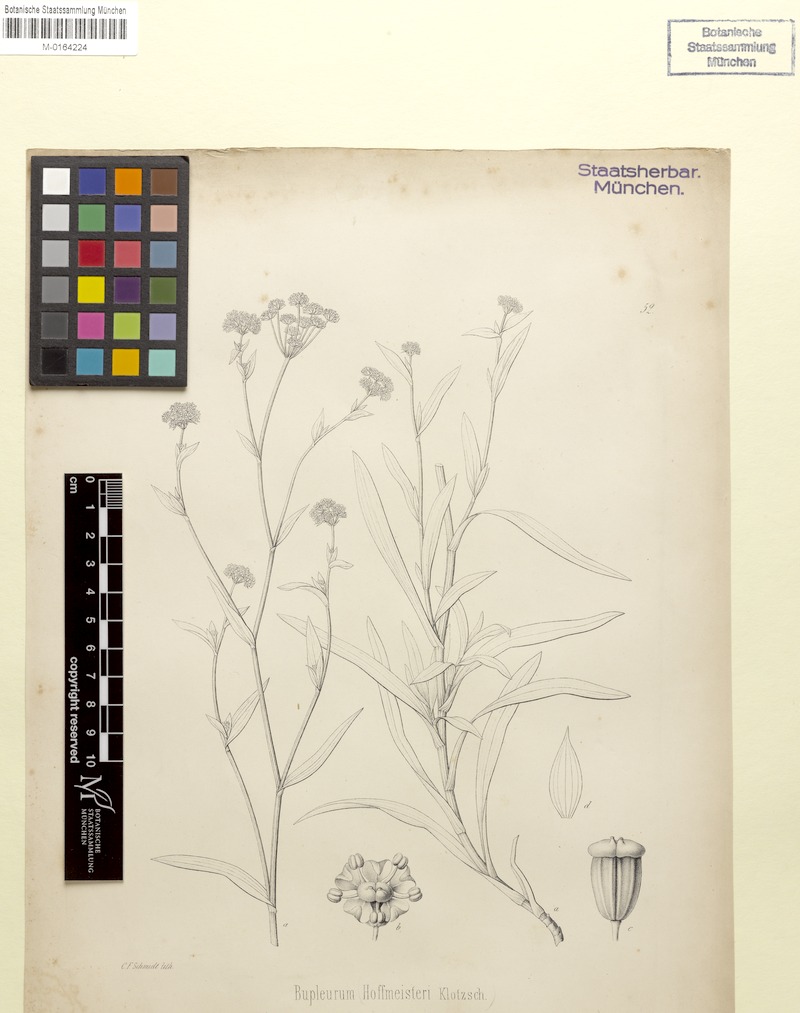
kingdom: Plantae
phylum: Tracheophyta
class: Magnoliopsida
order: Apiales
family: Apiaceae
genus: Bupleurum
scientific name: Bupleurum marginatum
